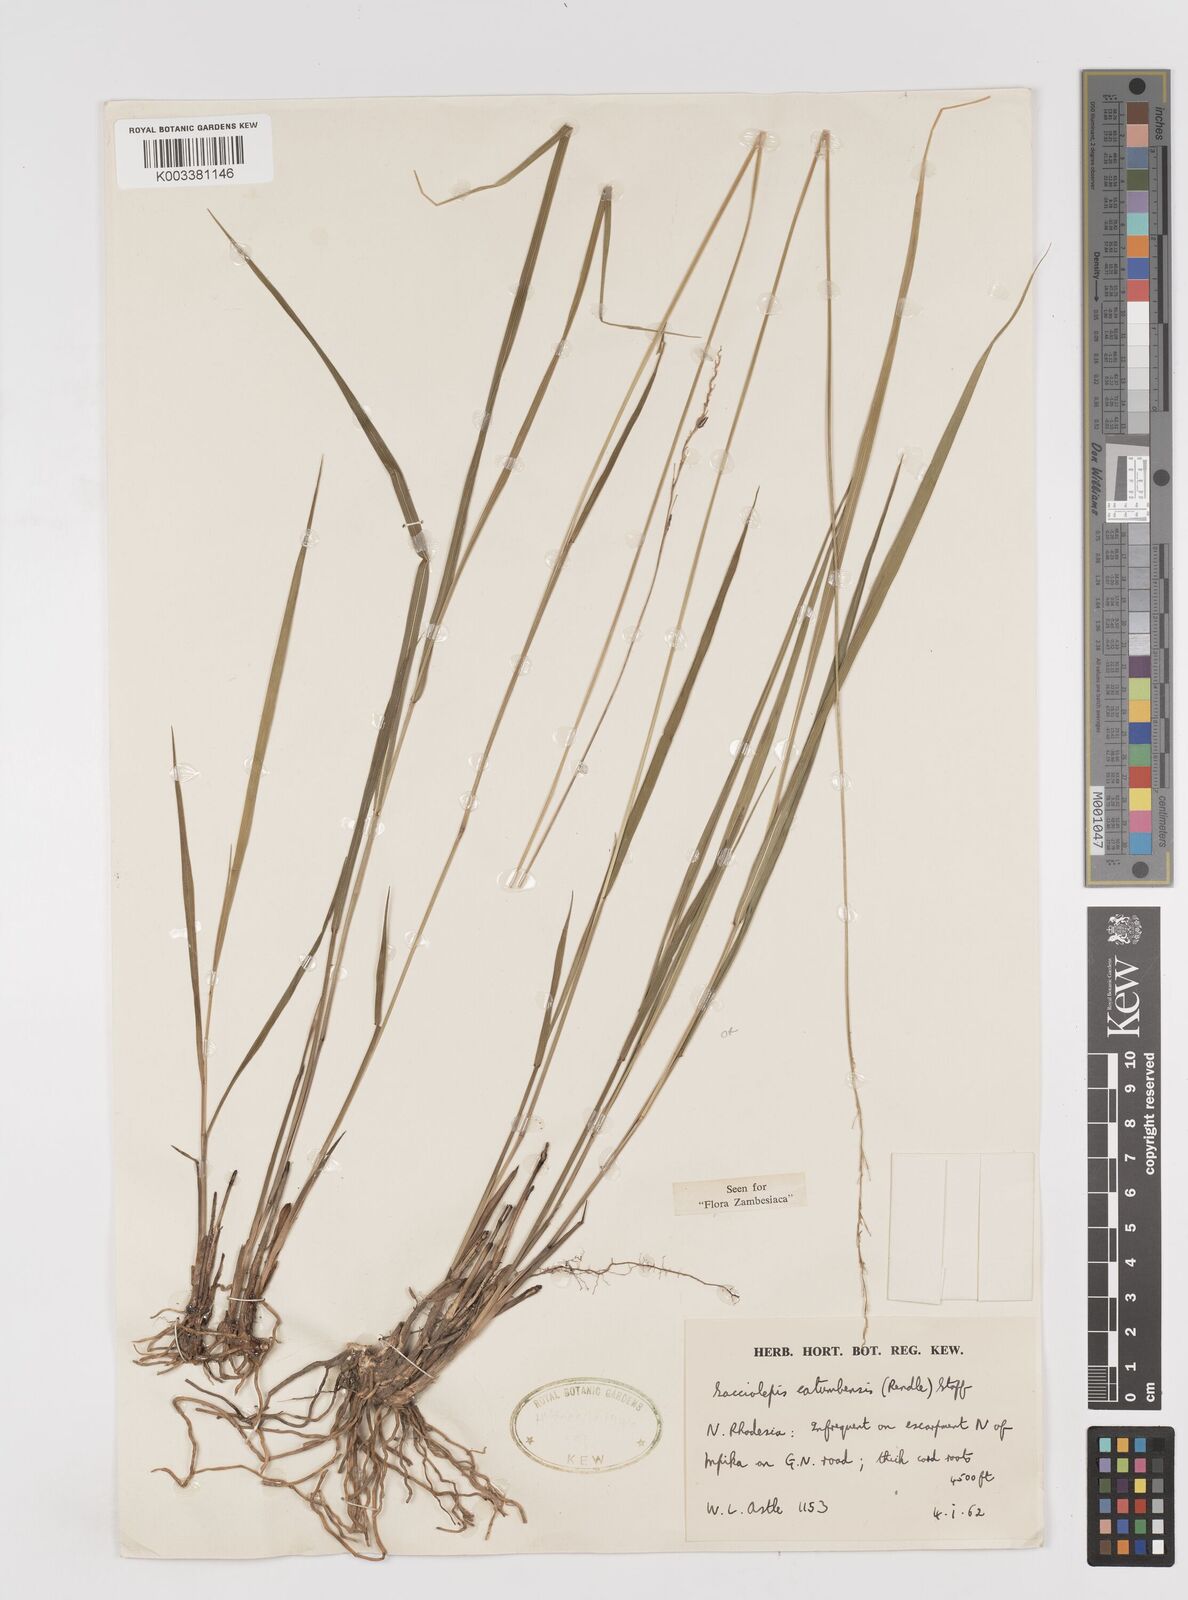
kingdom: Plantae
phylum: Tracheophyta
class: Liliopsida
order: Poales
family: Poaceae
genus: Sacciolepis
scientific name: Sacciolepis catumbensis
